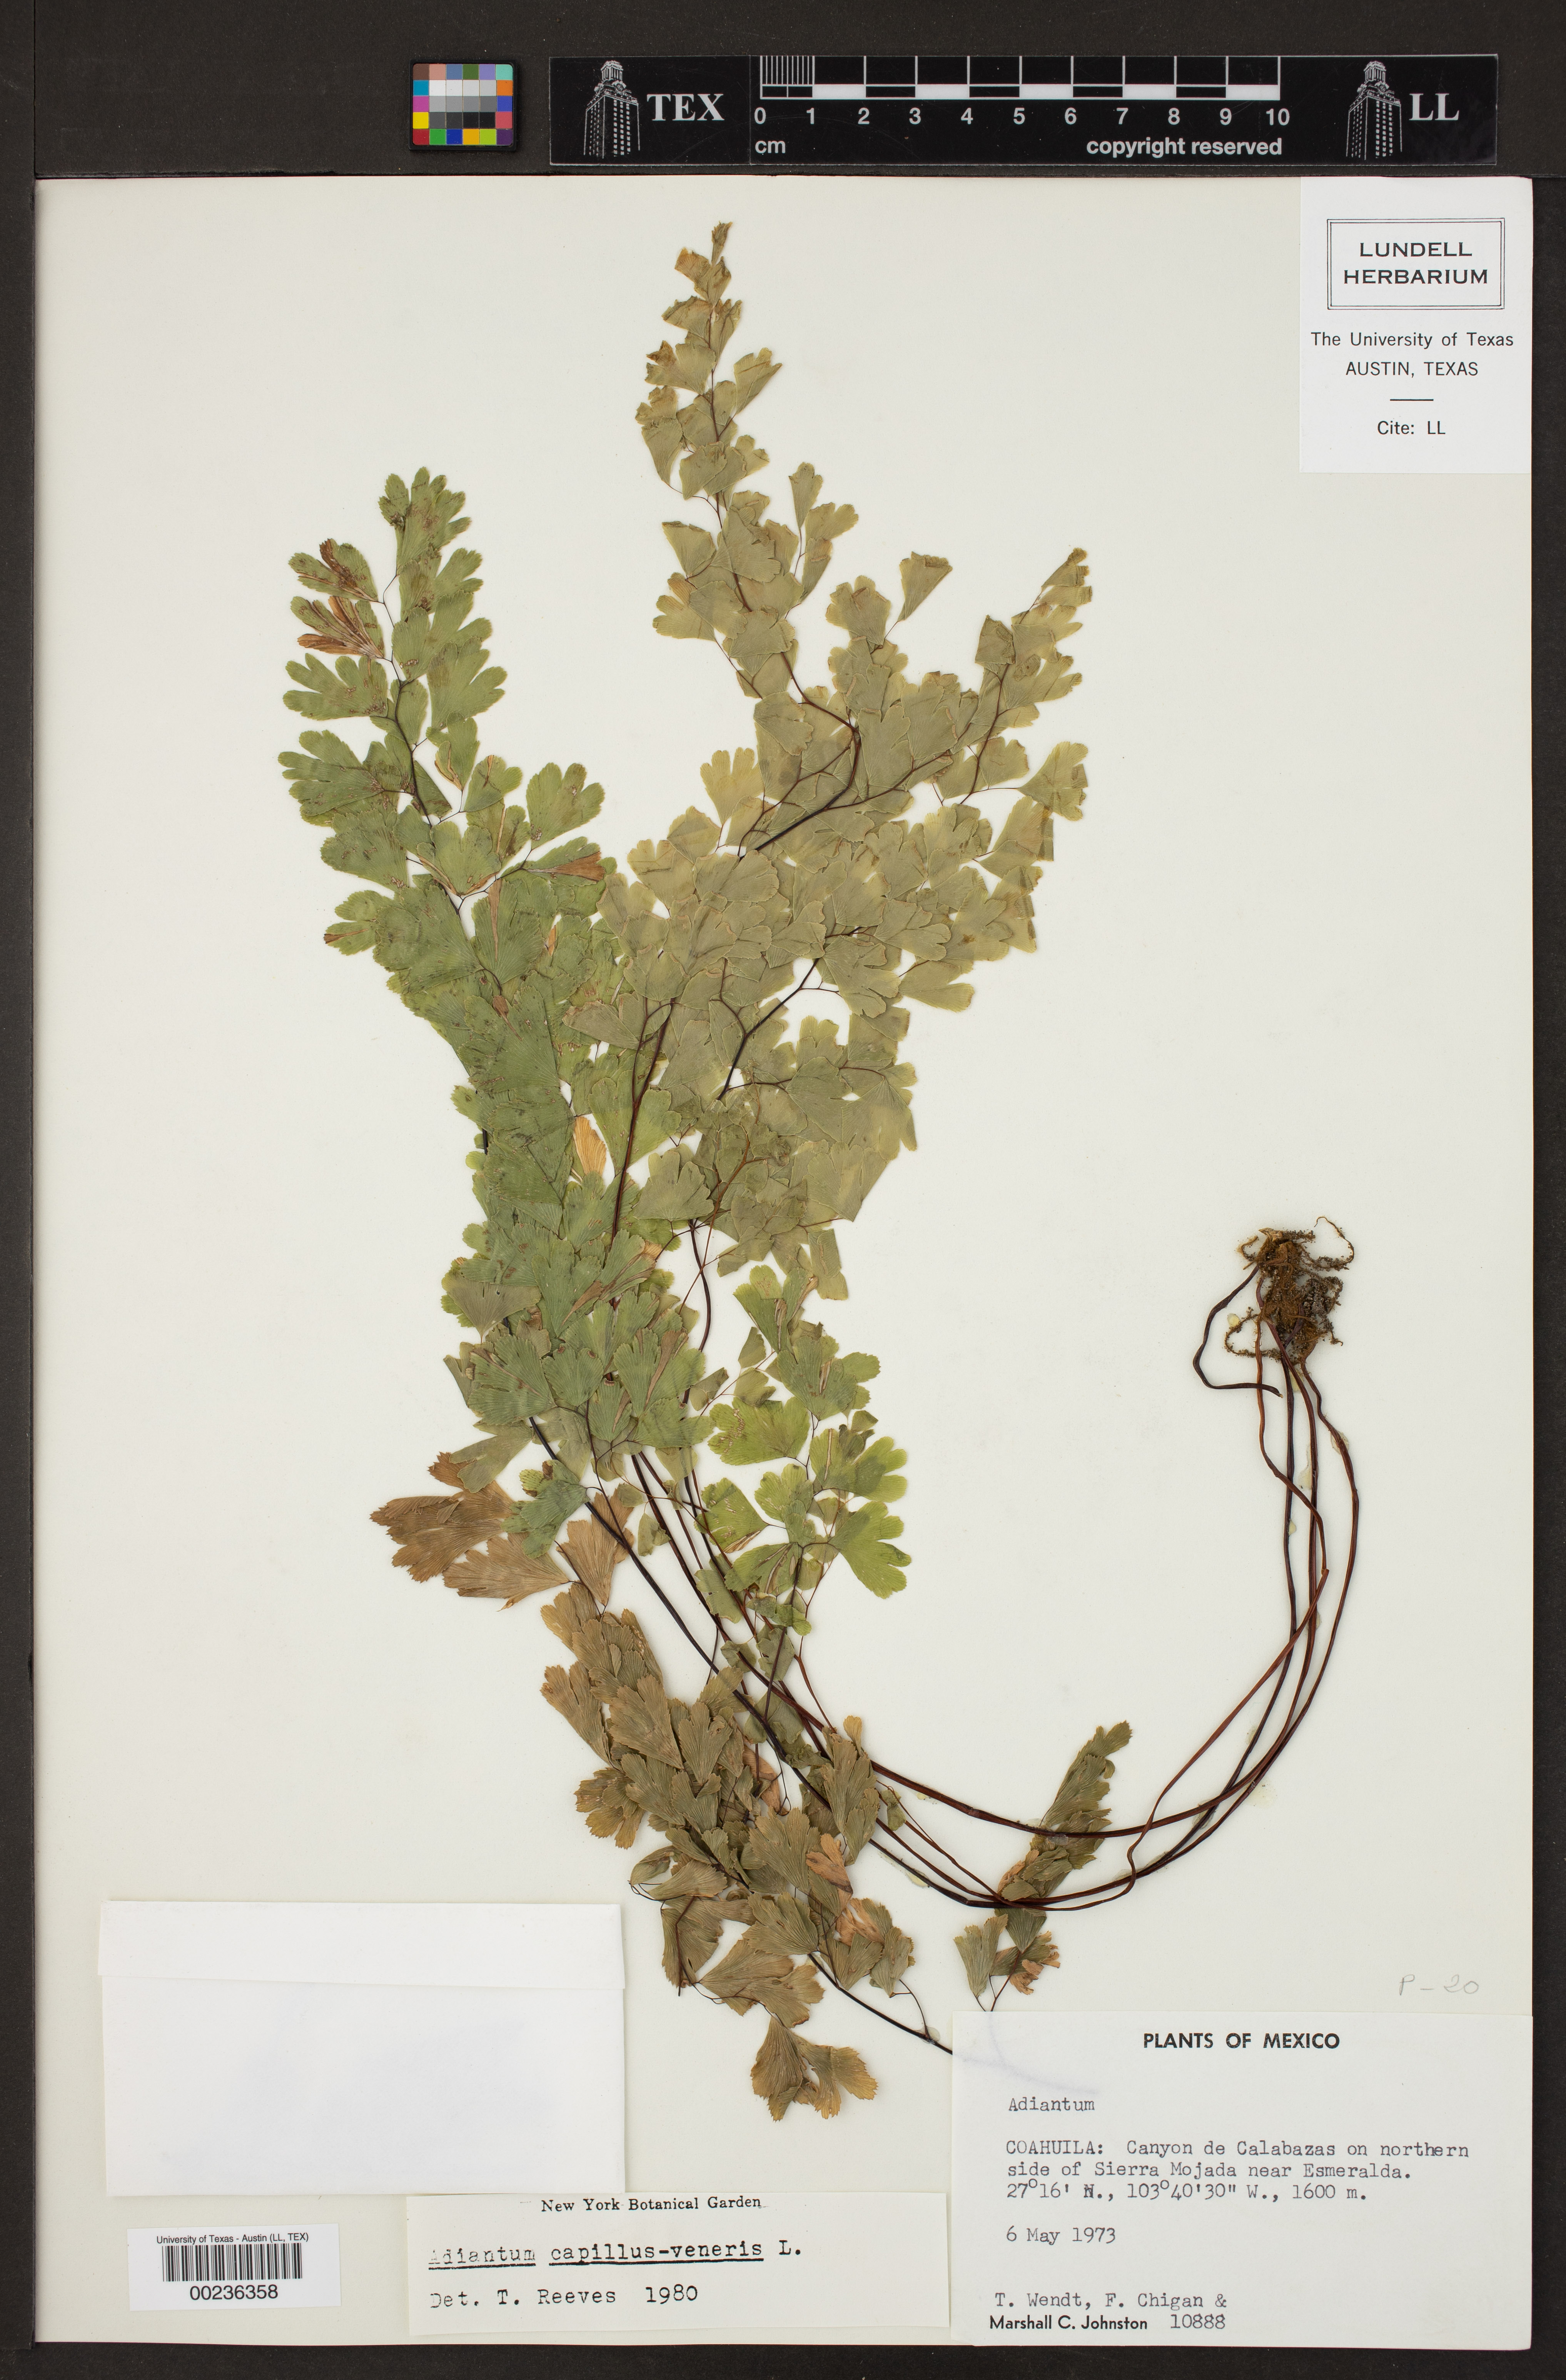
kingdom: Plantae
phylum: Tracheophyta
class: Polypodiopsida
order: Polypodiales
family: Pteridaceae
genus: Adiantum
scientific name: Adiantum capillus-veneris
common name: Maidenhair fern
